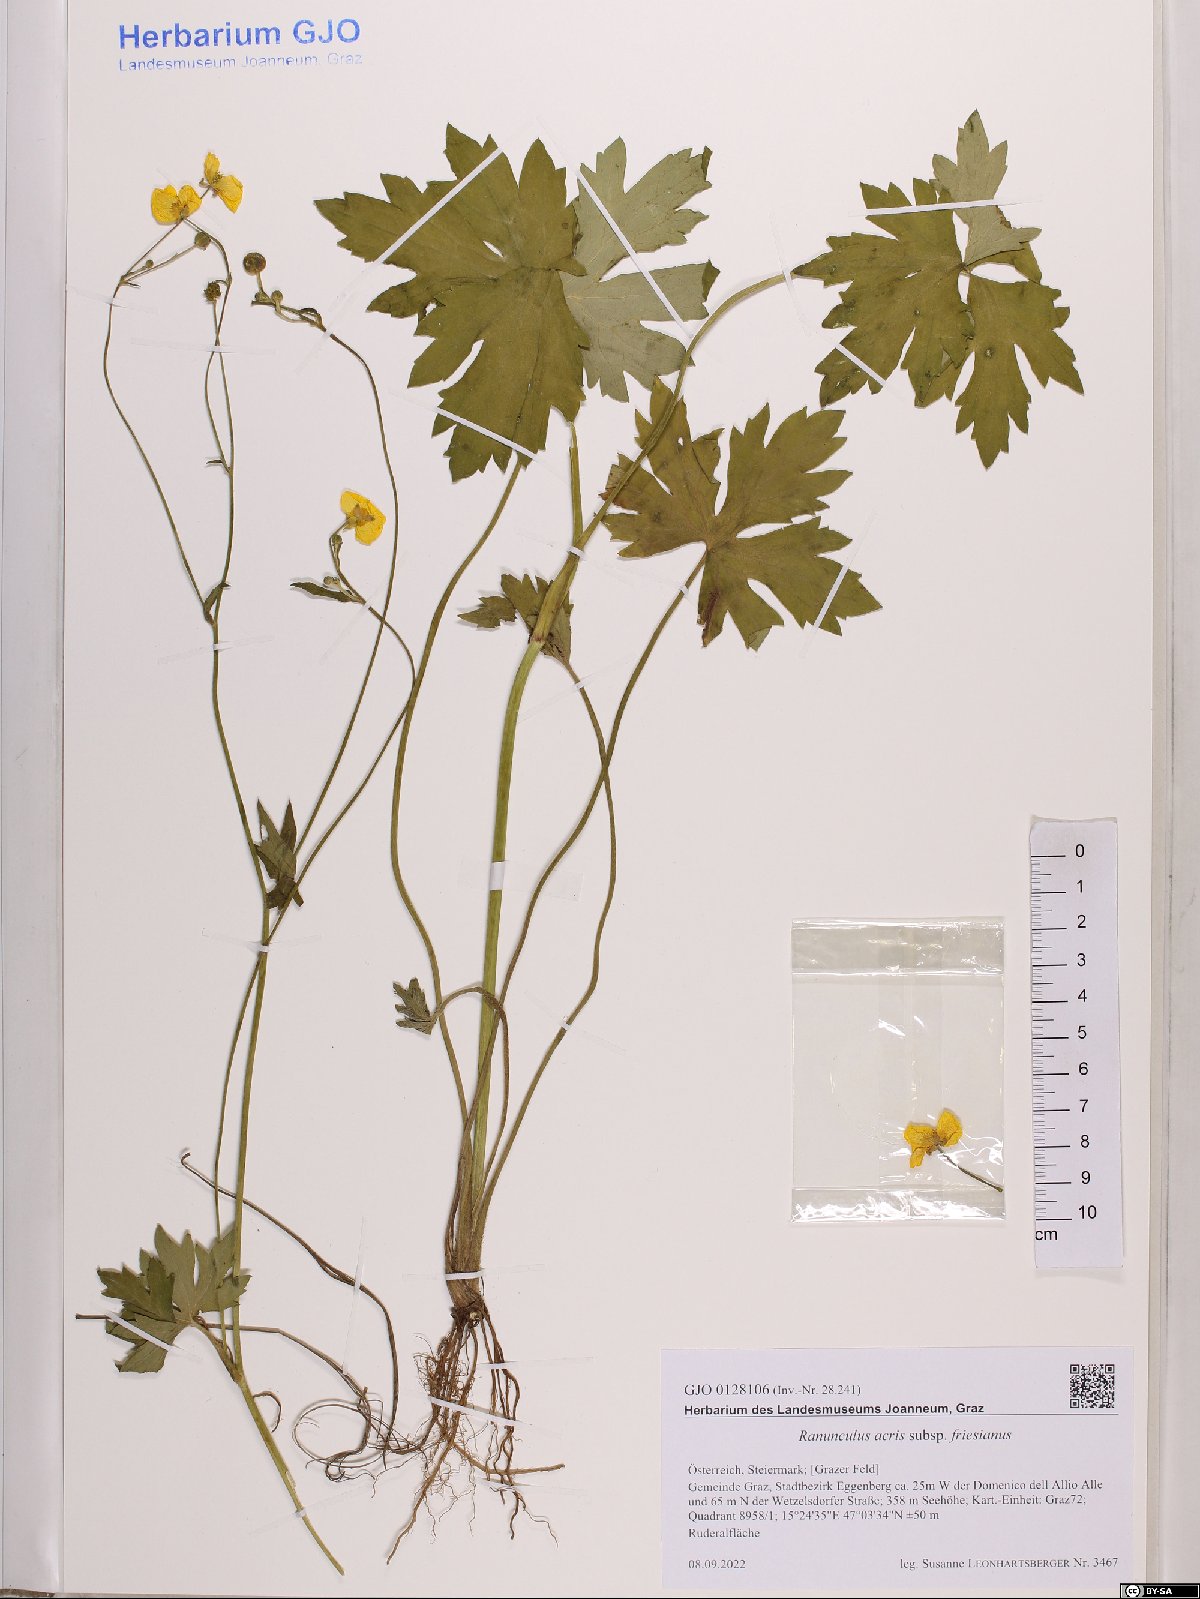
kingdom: Plantae
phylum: Tracheophyta
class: Magnoliopsida
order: Ranunculales
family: Ranunculaceae
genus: Ranunculus
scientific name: Ranunculus acris
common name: Meadow buttercup
